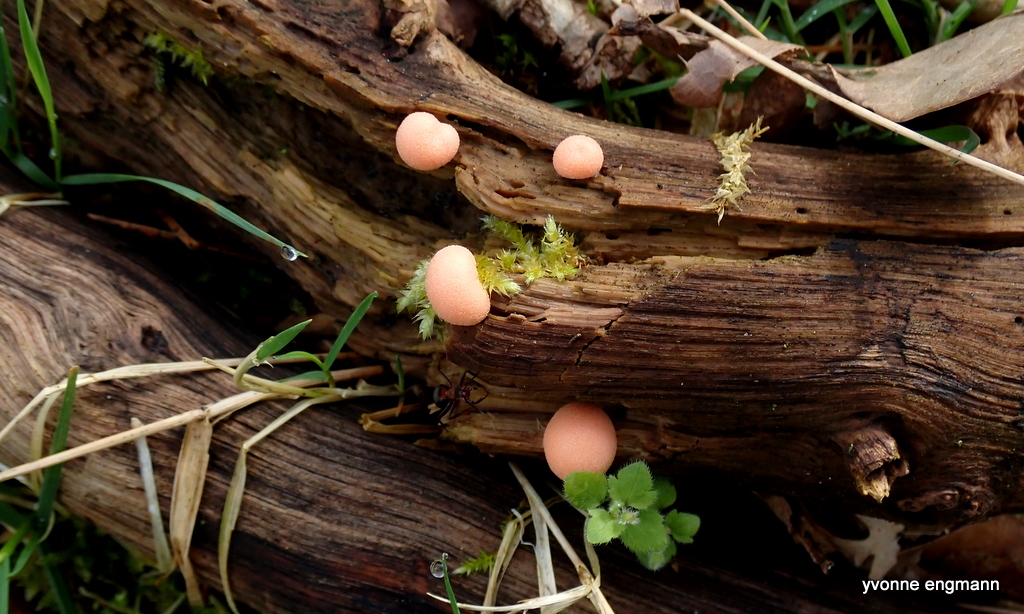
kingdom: Protozoa
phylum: Mycetozoa
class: Myxomycetes
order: Cribrariales
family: Tubiferaceae
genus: Lycogala
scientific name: Lycogala epidendrum
